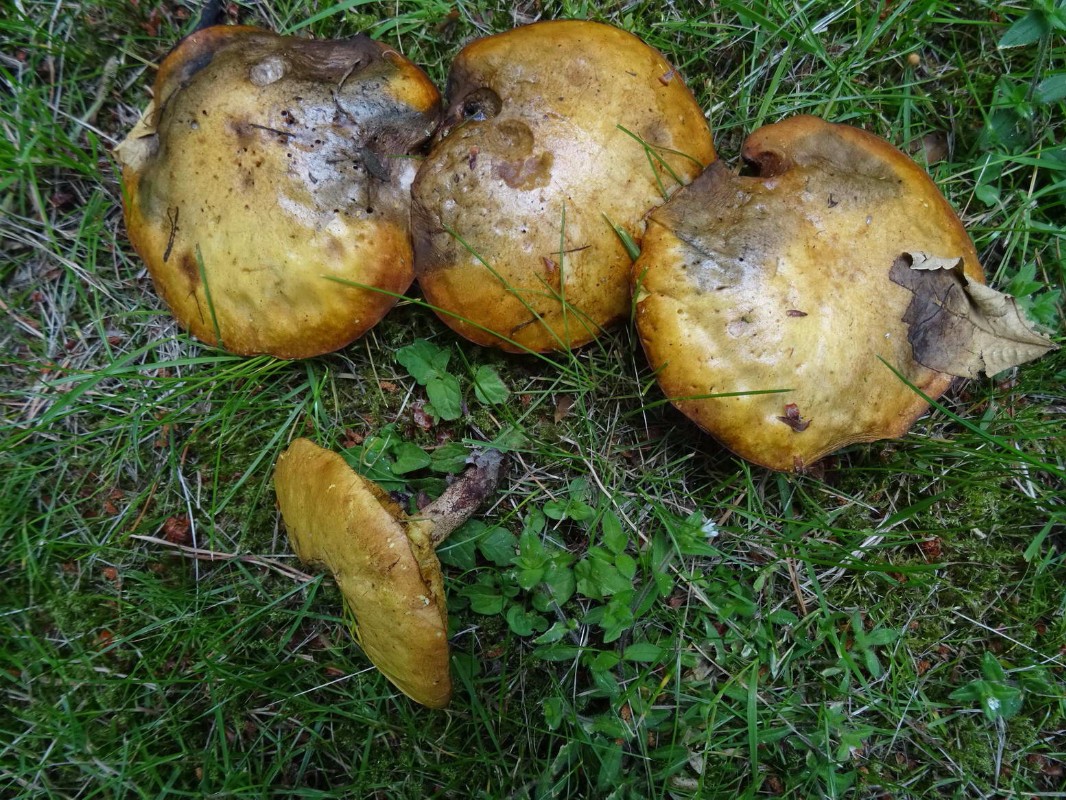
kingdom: Fungi
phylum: Basidiomycota
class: Agaricomycetes
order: Boletales
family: Suillaceae
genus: Suillus
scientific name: Suillus granulatus
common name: kornet slimrørhat
